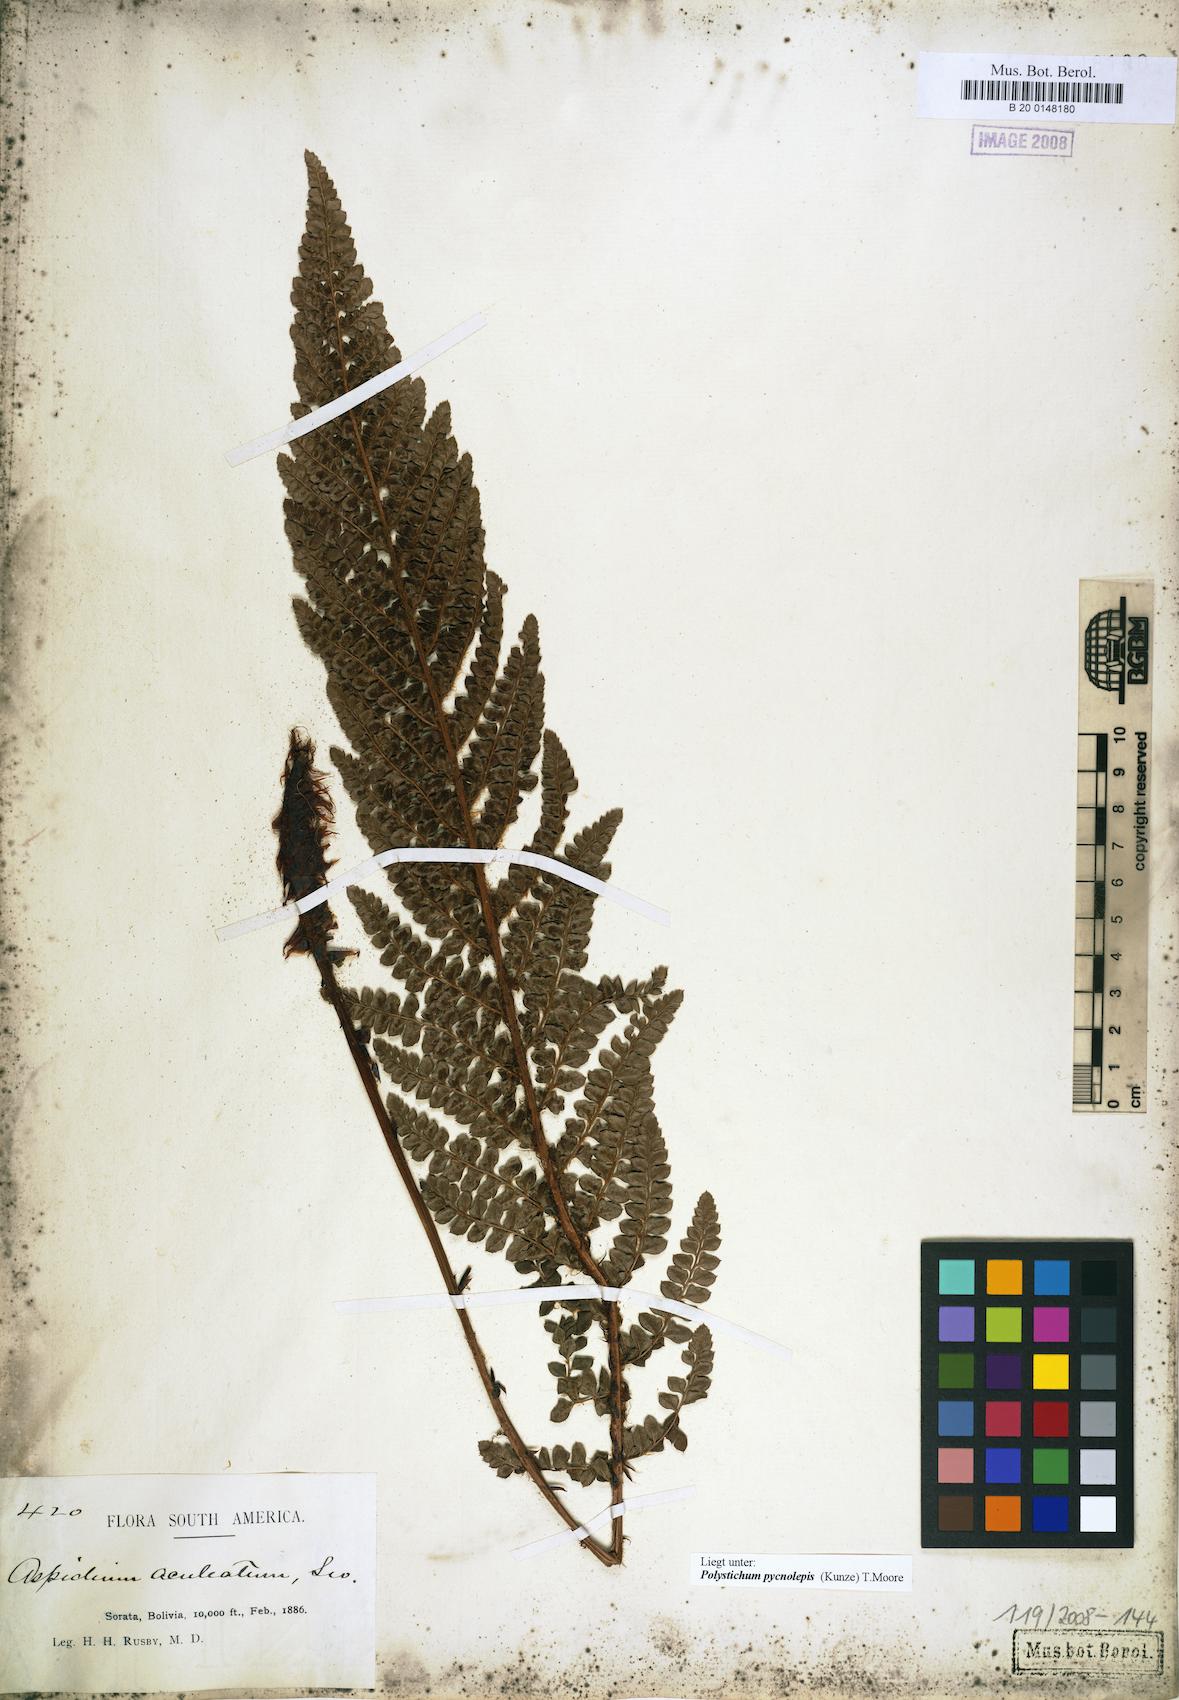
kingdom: Plantae
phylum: Tracheophyta
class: Polypodiopsida
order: Polypodiales
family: Dryopteridaceae
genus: Polystichum
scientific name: Polystichum pycnolepis
